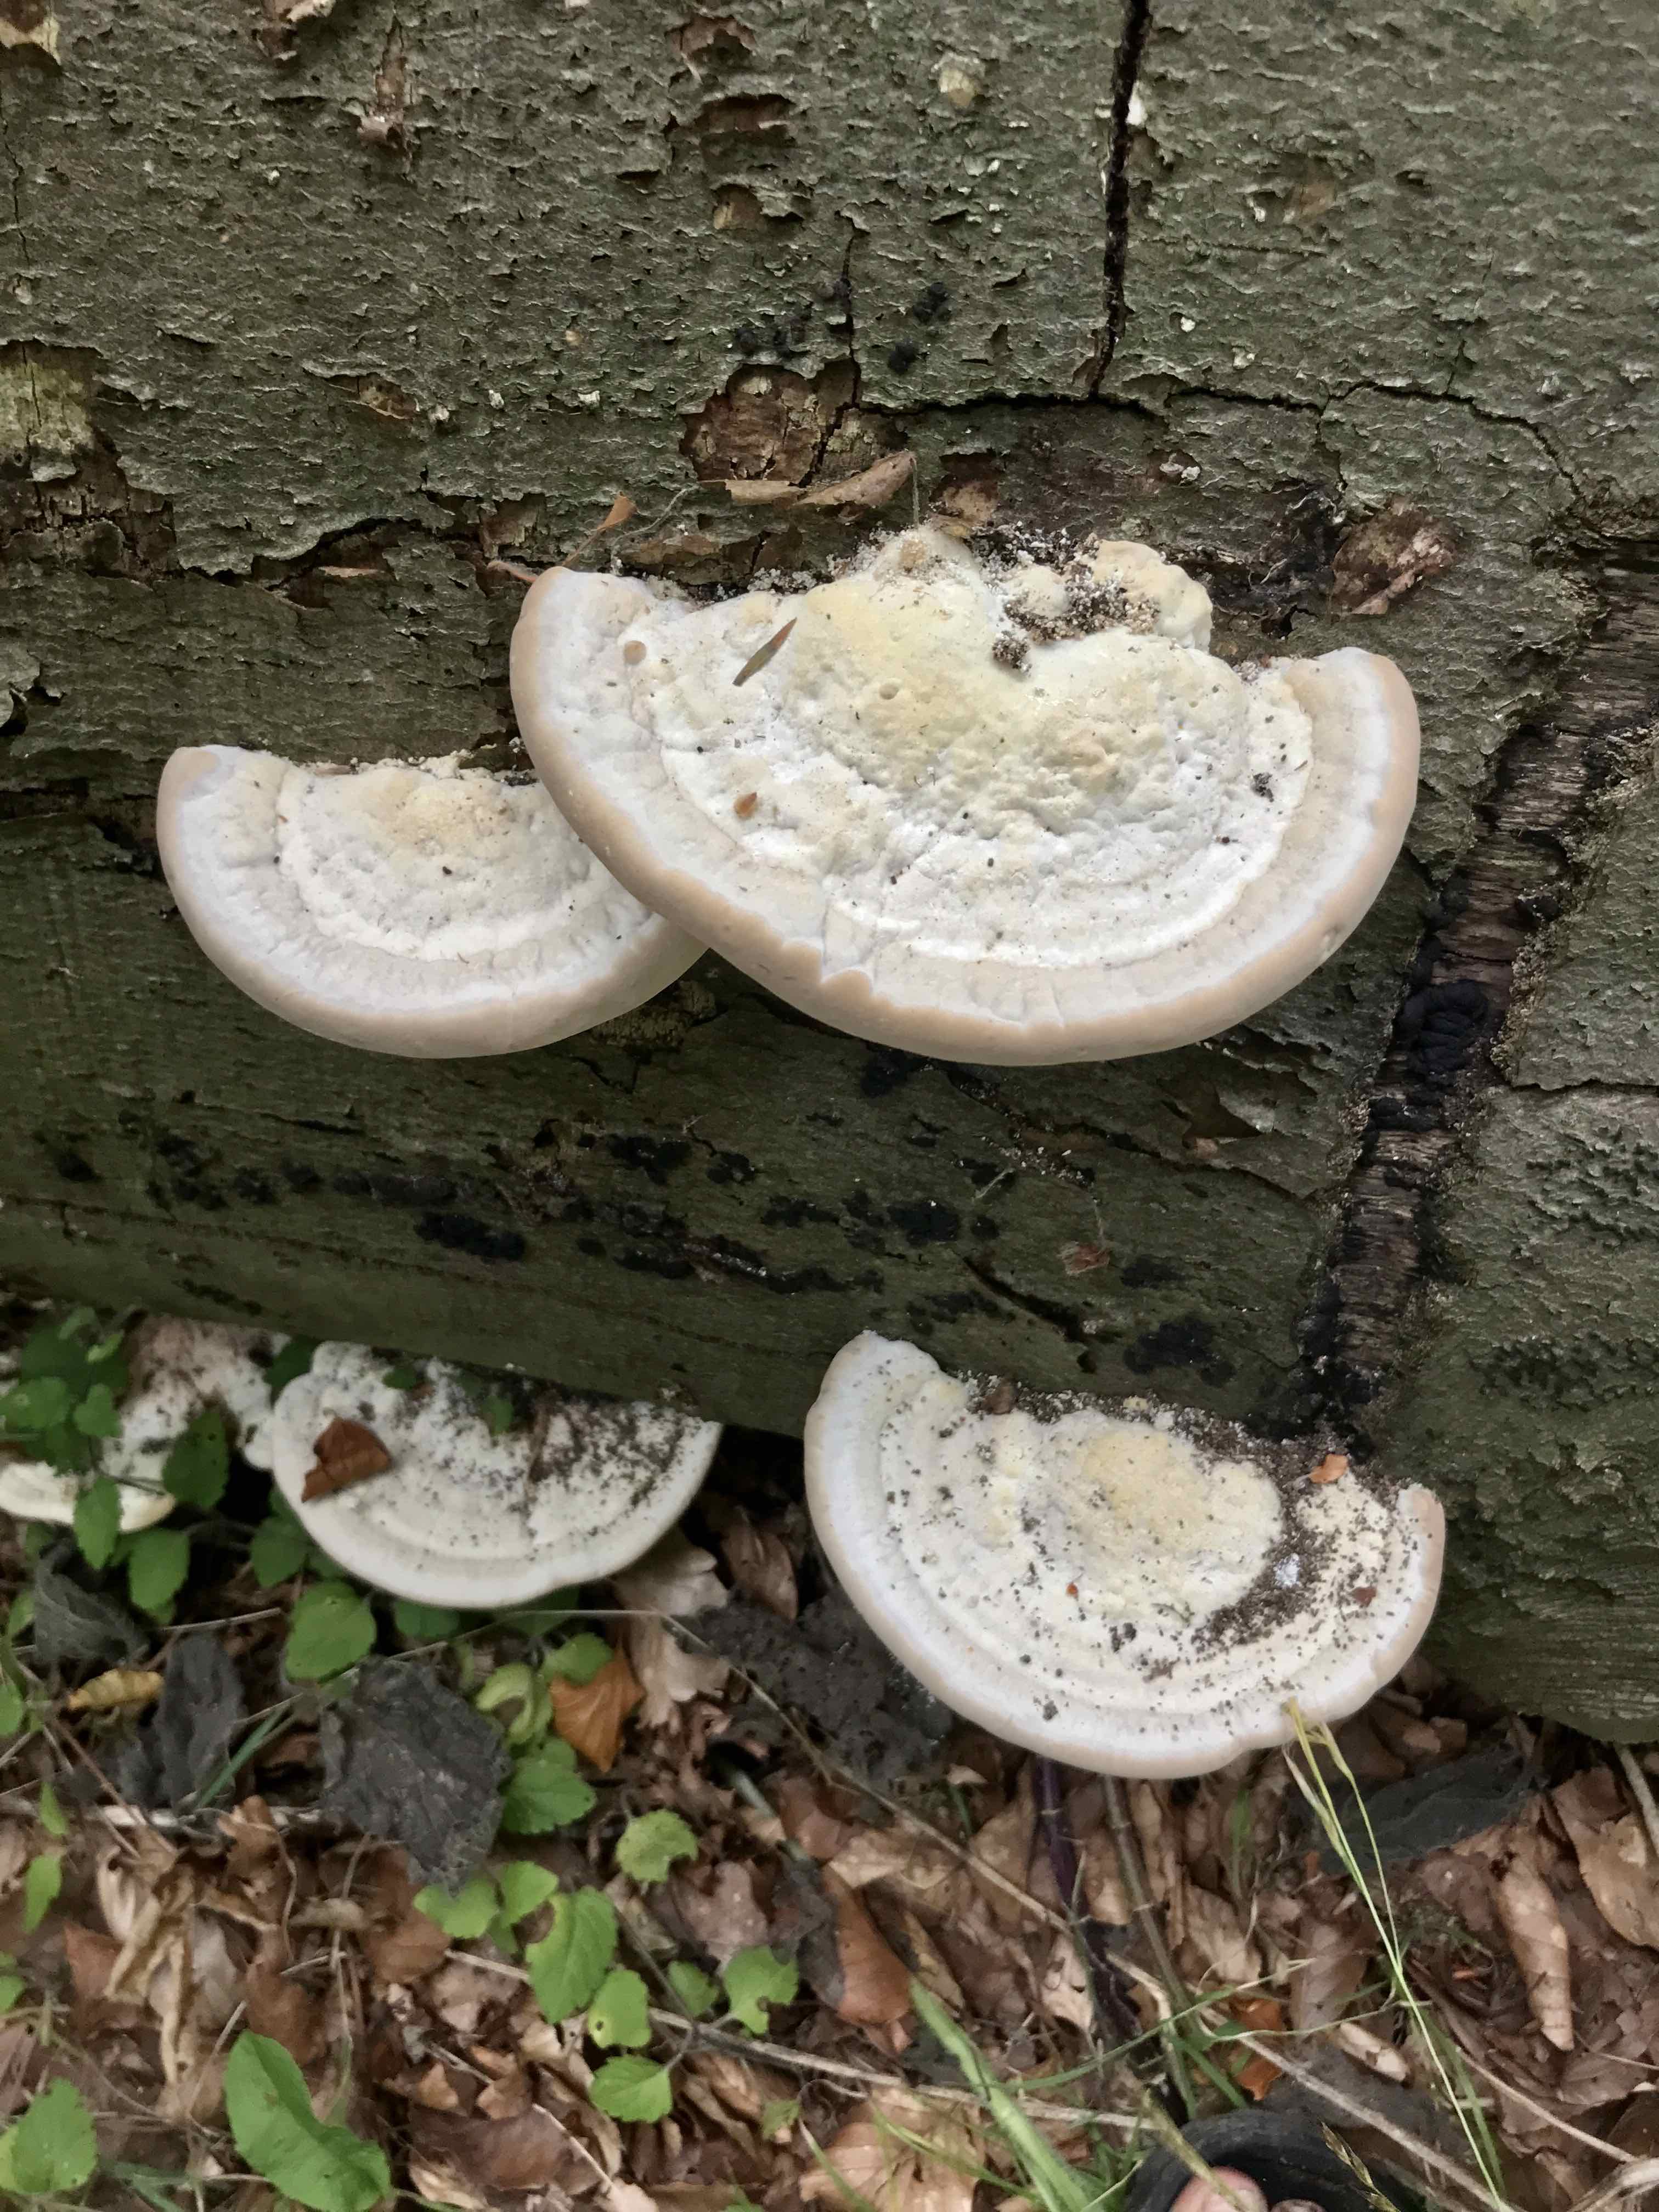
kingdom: Fungi
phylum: Basidiomycota
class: Agaricomycetes
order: Polyporales
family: Polyporaceae
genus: Trametes
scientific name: Trametes gibbosa
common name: puklet læderporesvamp
